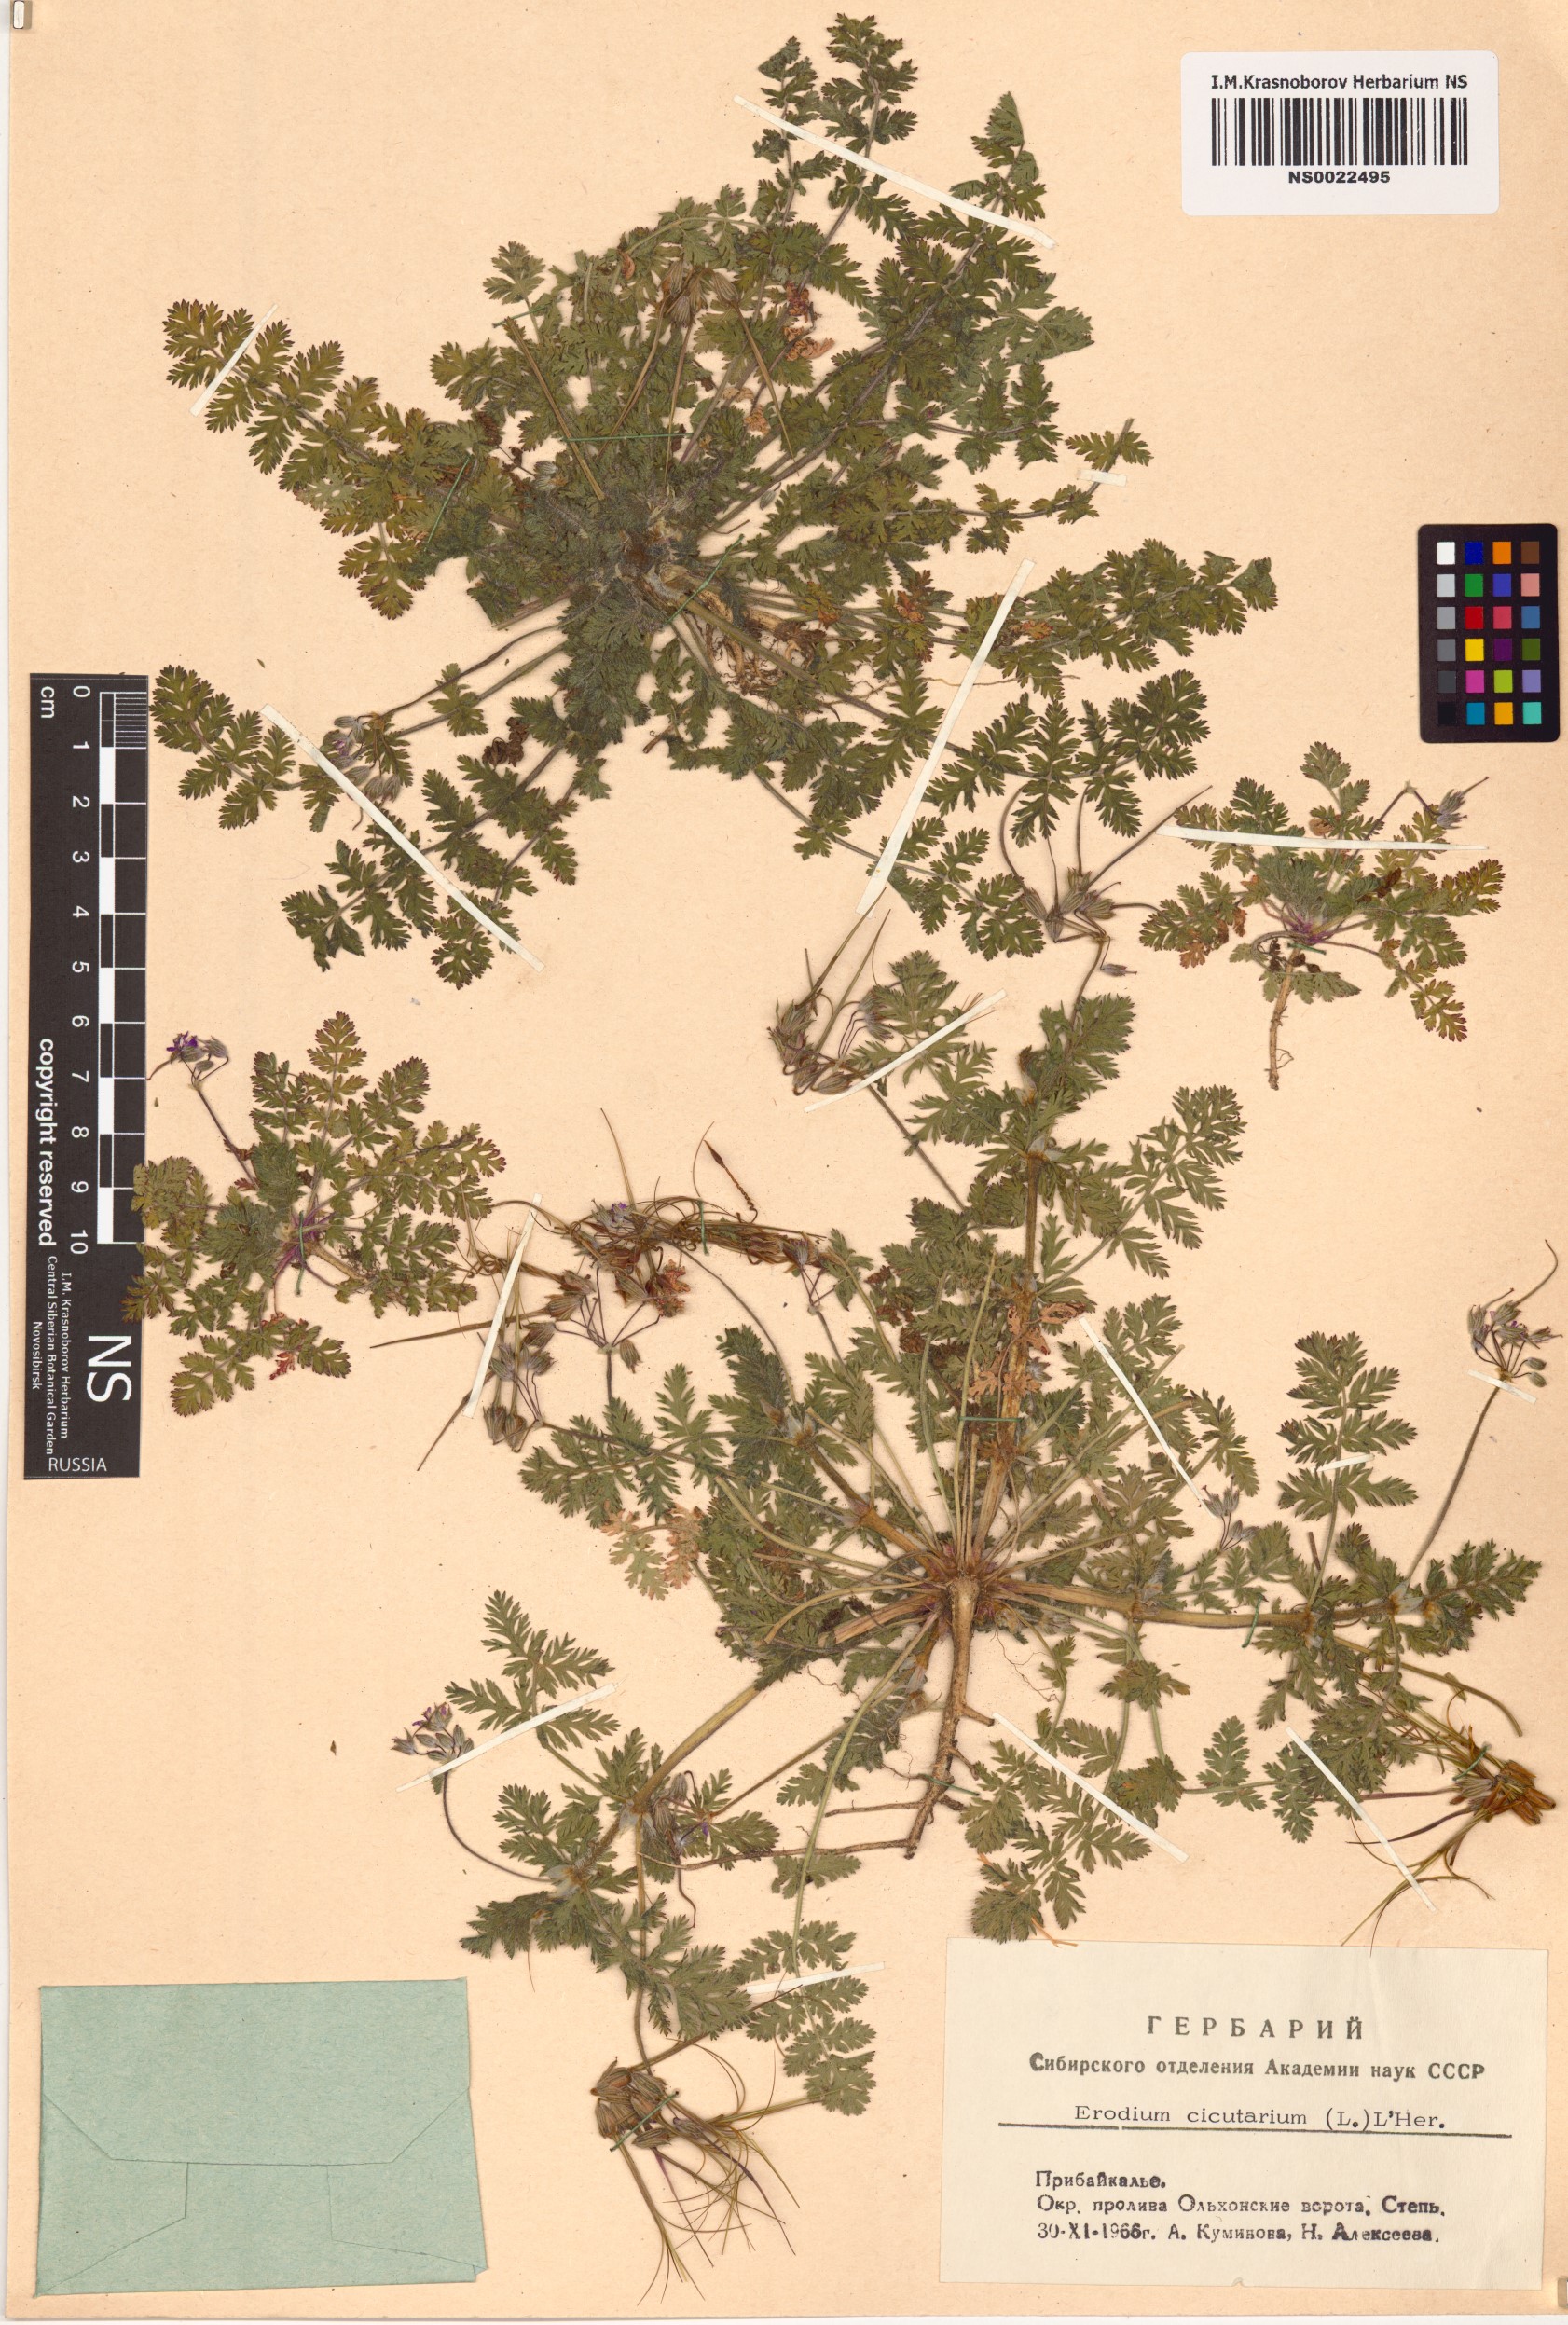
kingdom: Plantae
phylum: Tracheophyta
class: Magnoliopsida
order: Geraniales
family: Geraniaceae
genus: Erodium
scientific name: Erodium cicutarium
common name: Common stork's-bill
